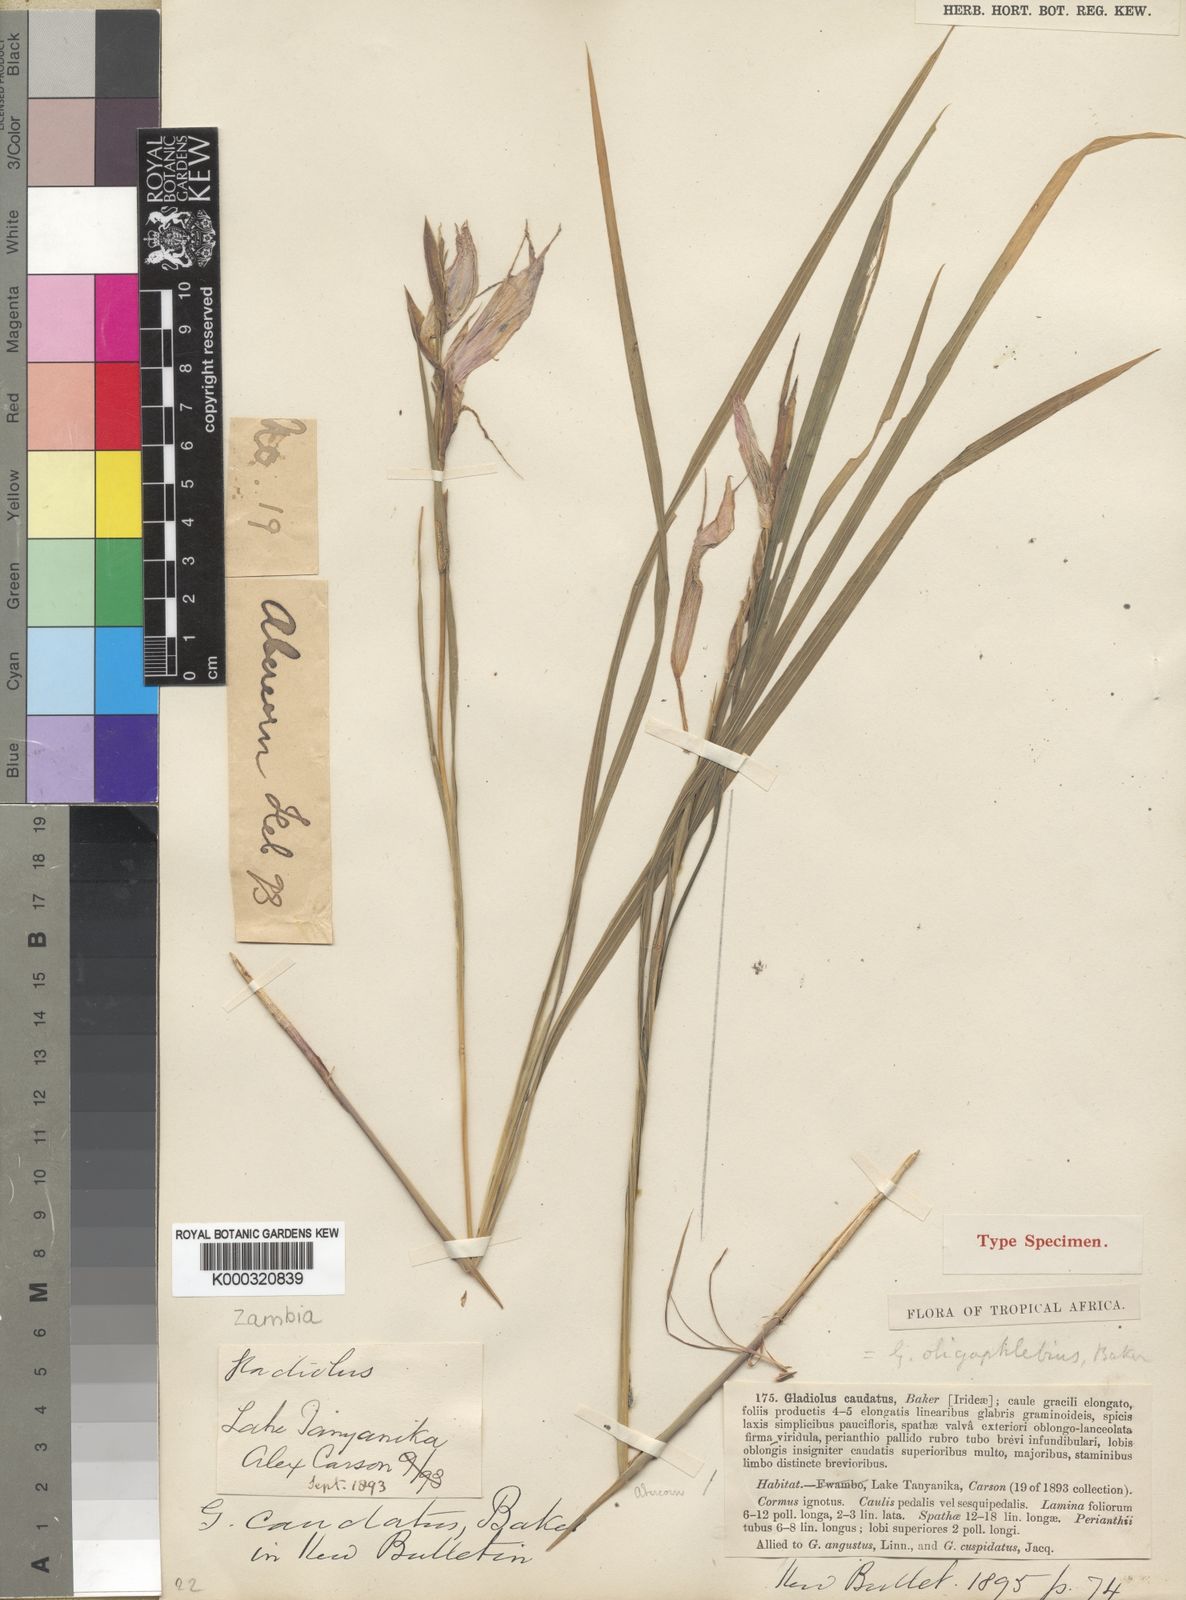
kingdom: Plantae
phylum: Tracheophyta
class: Liliopsida
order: Asparagales
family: Iridaceae
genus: Gladiolus
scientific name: Gladiolus oligophlebius
